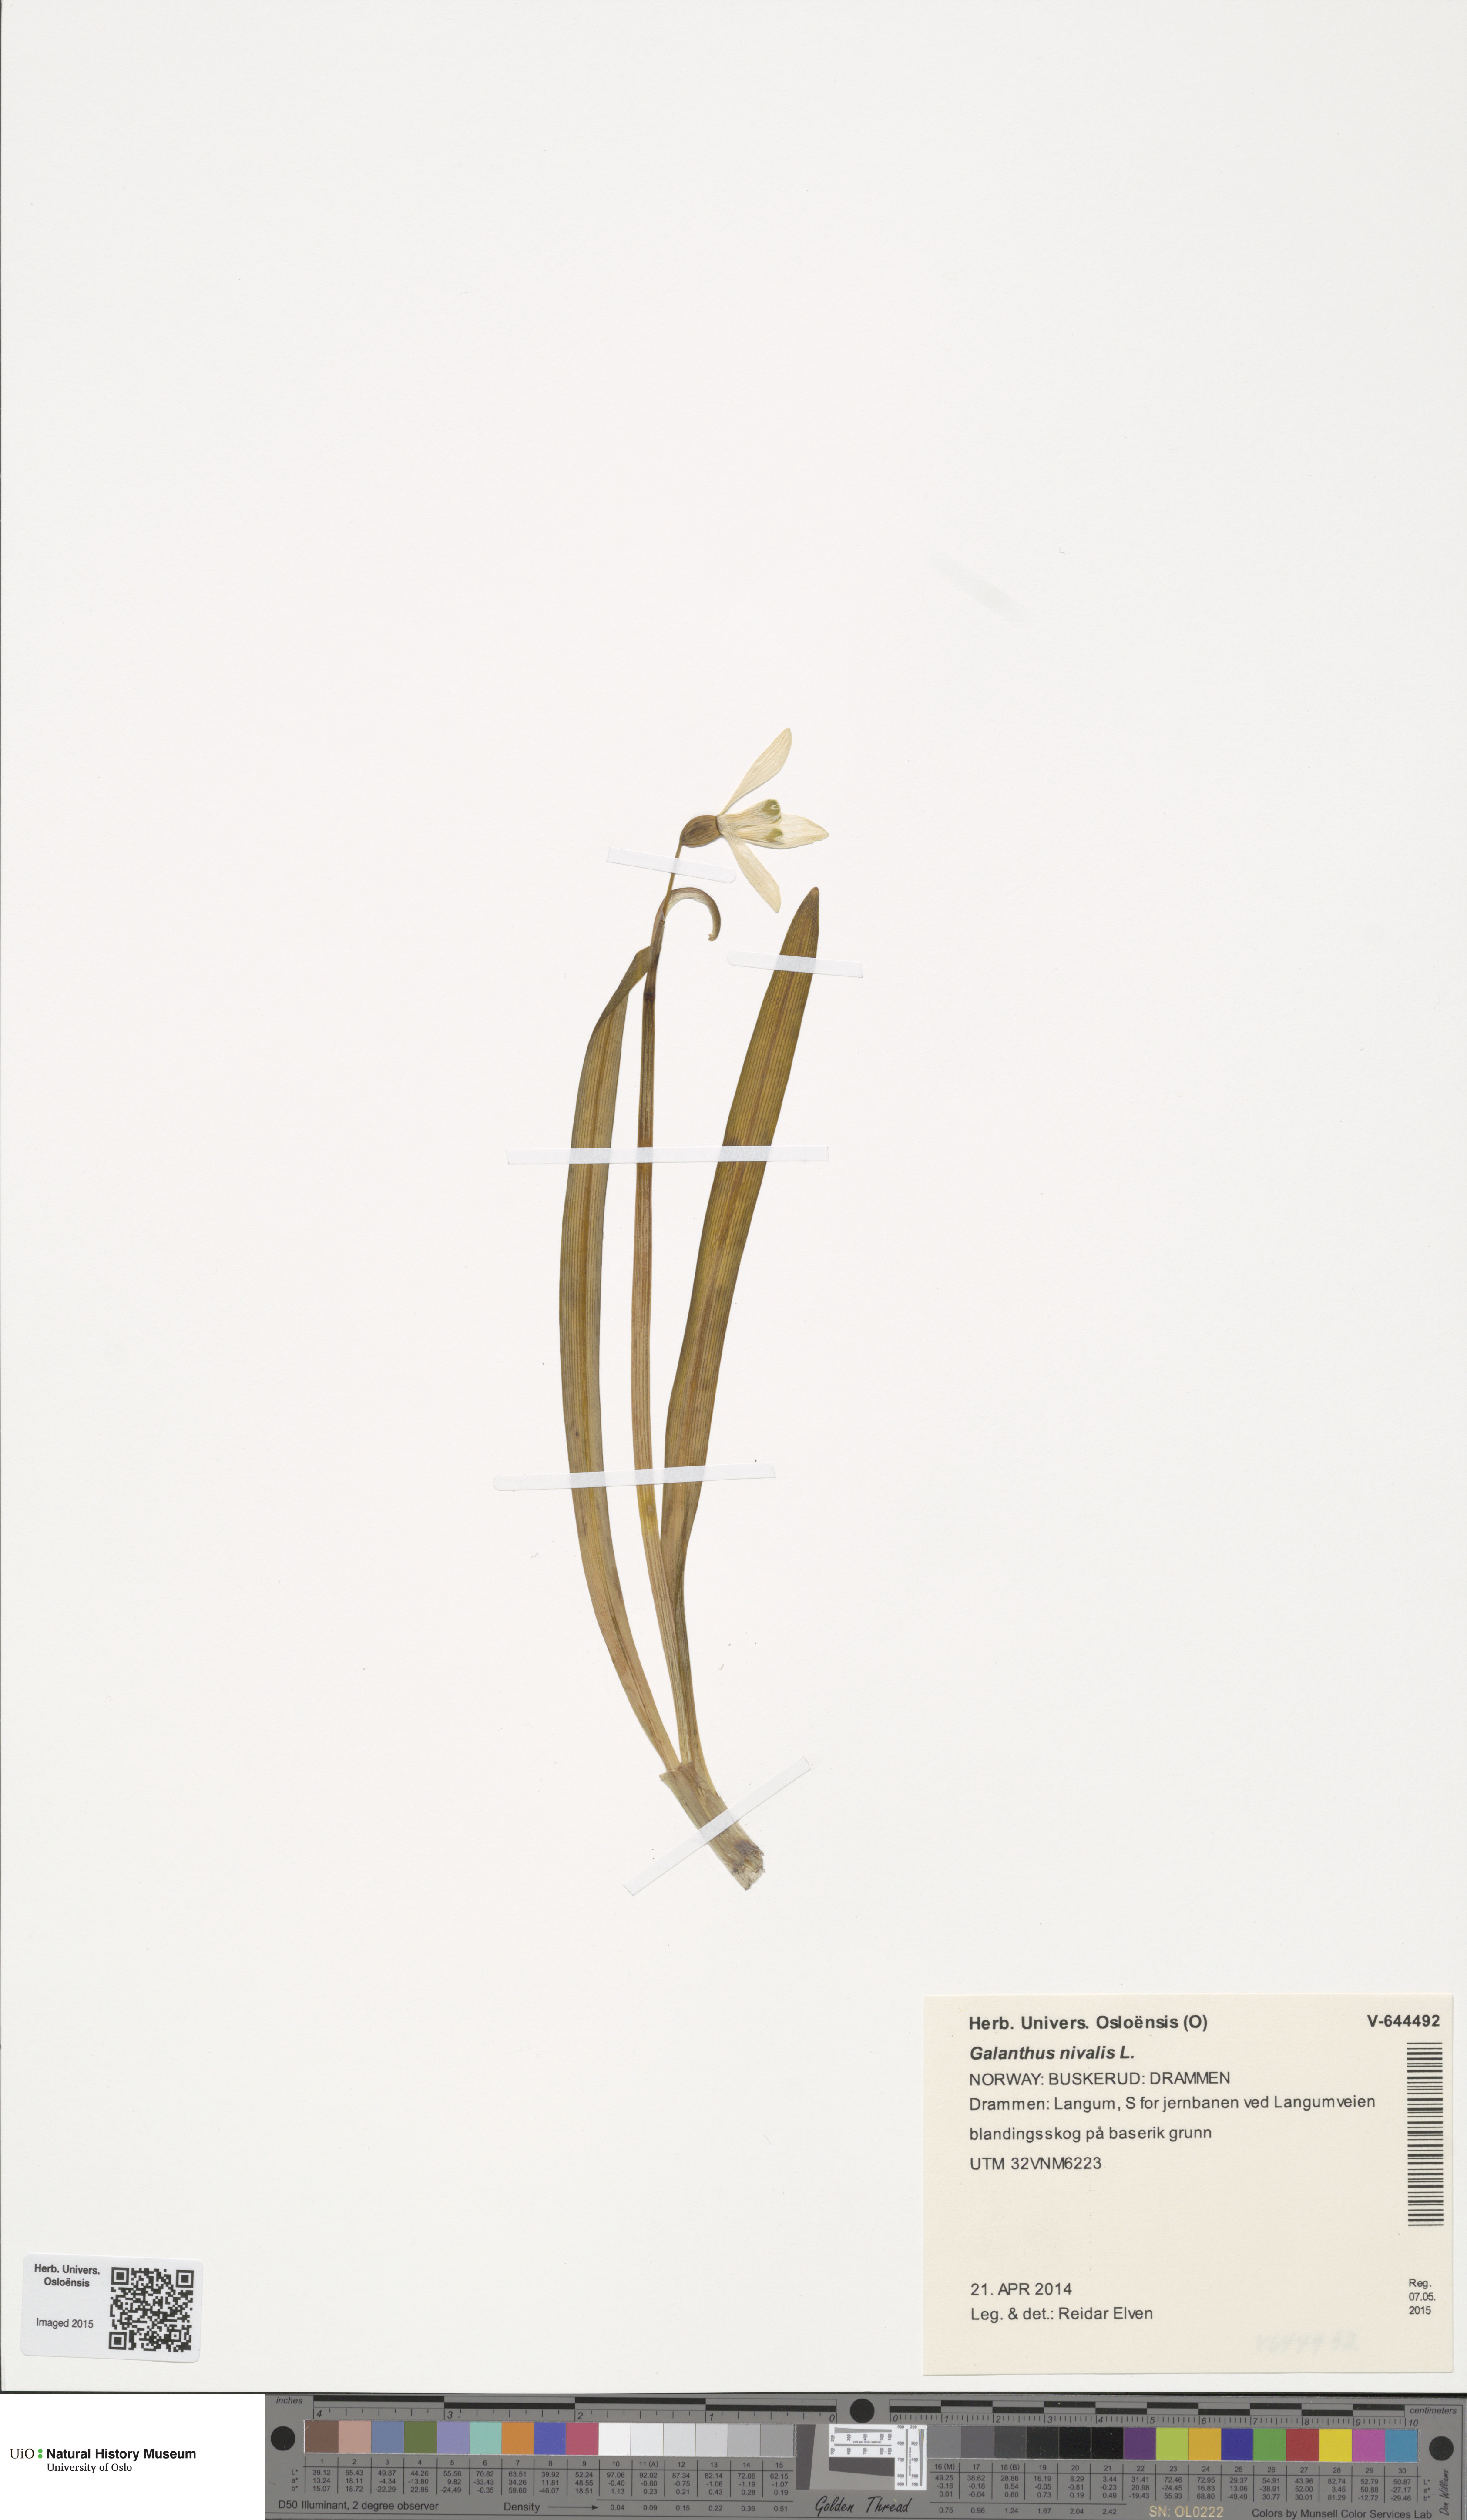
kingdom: Plantae
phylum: Tracheophyta
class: Liliopsida
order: Asparagales
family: Amaryllidaceae
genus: Galanthus
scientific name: Galanthus nivalis
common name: Snowdrop
